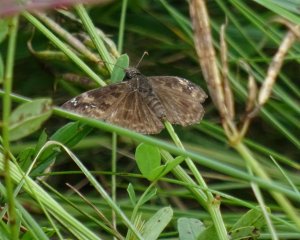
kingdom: Animalia
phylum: Arthropoda
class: Insecta
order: Lepidoptera
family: Hesperiidae
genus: Gesta
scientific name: Gesta
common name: Wild Indigo Duskywing
